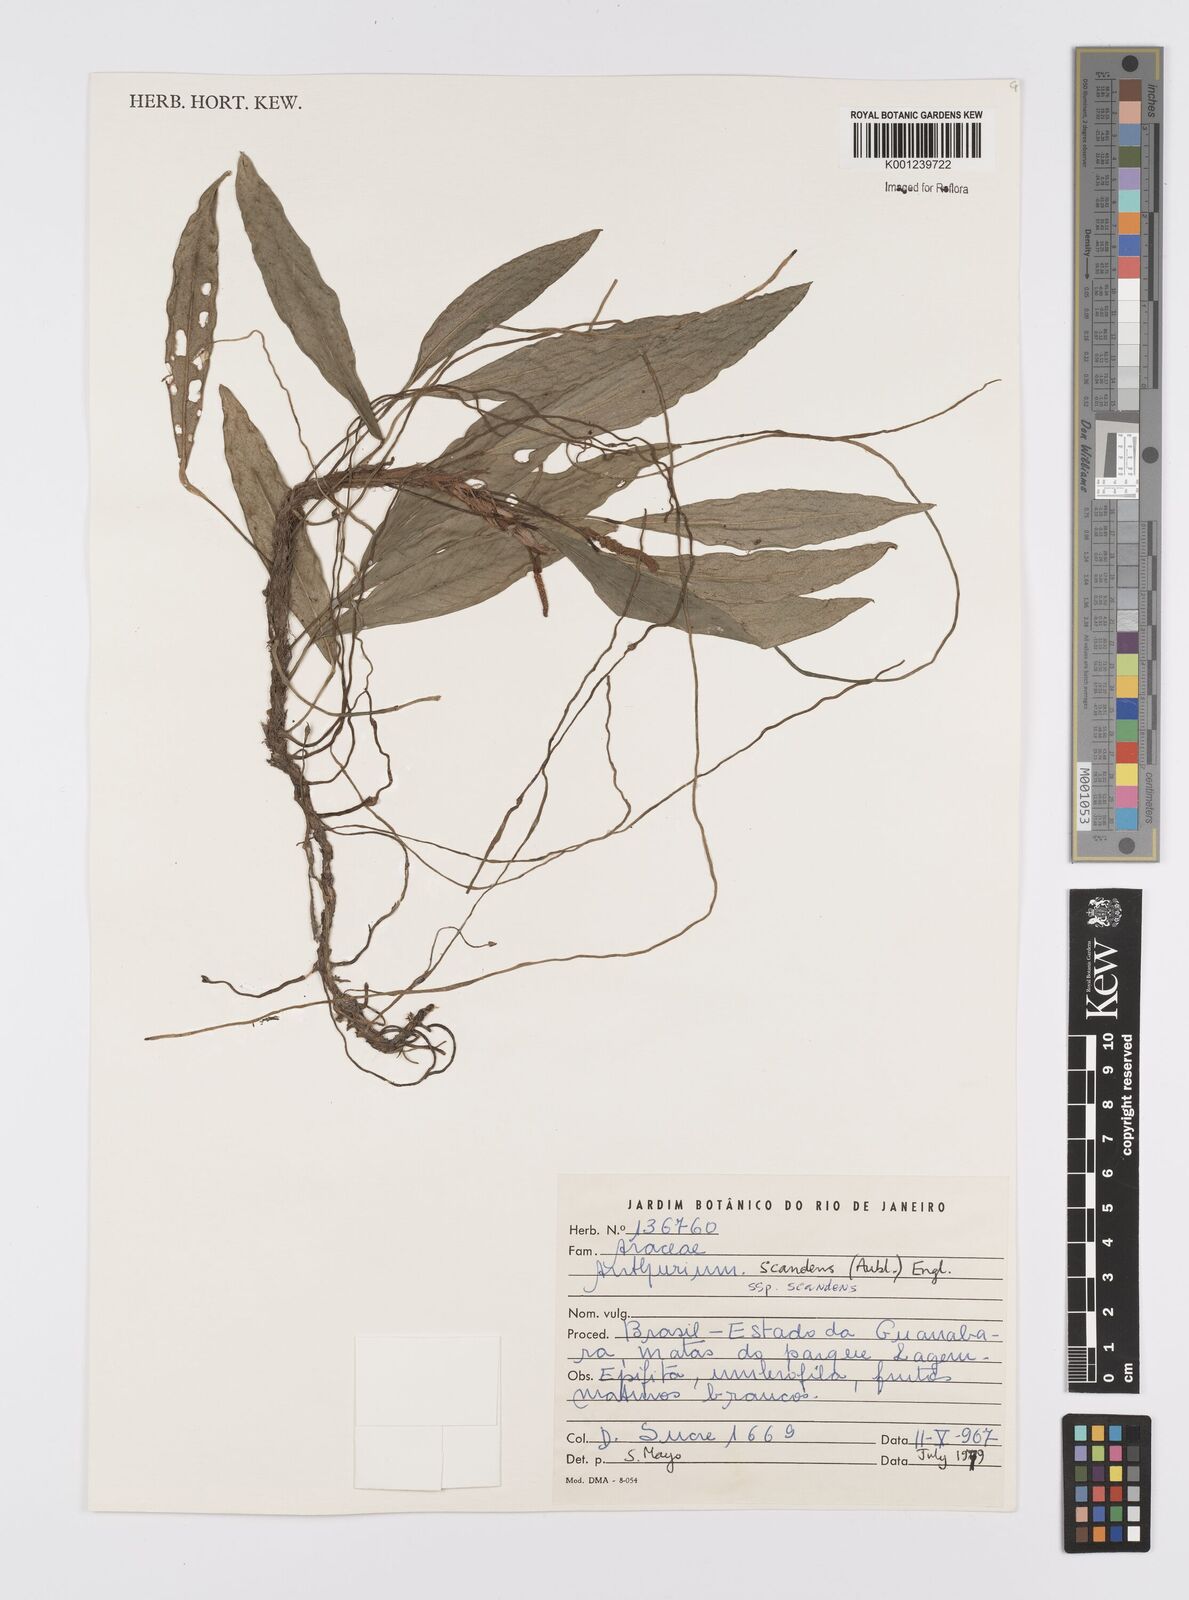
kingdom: Plantae
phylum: Tracheophyta
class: Liliopsida
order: Alismatales
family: Araceae
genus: Anthurium
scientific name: Anthurium scandens
